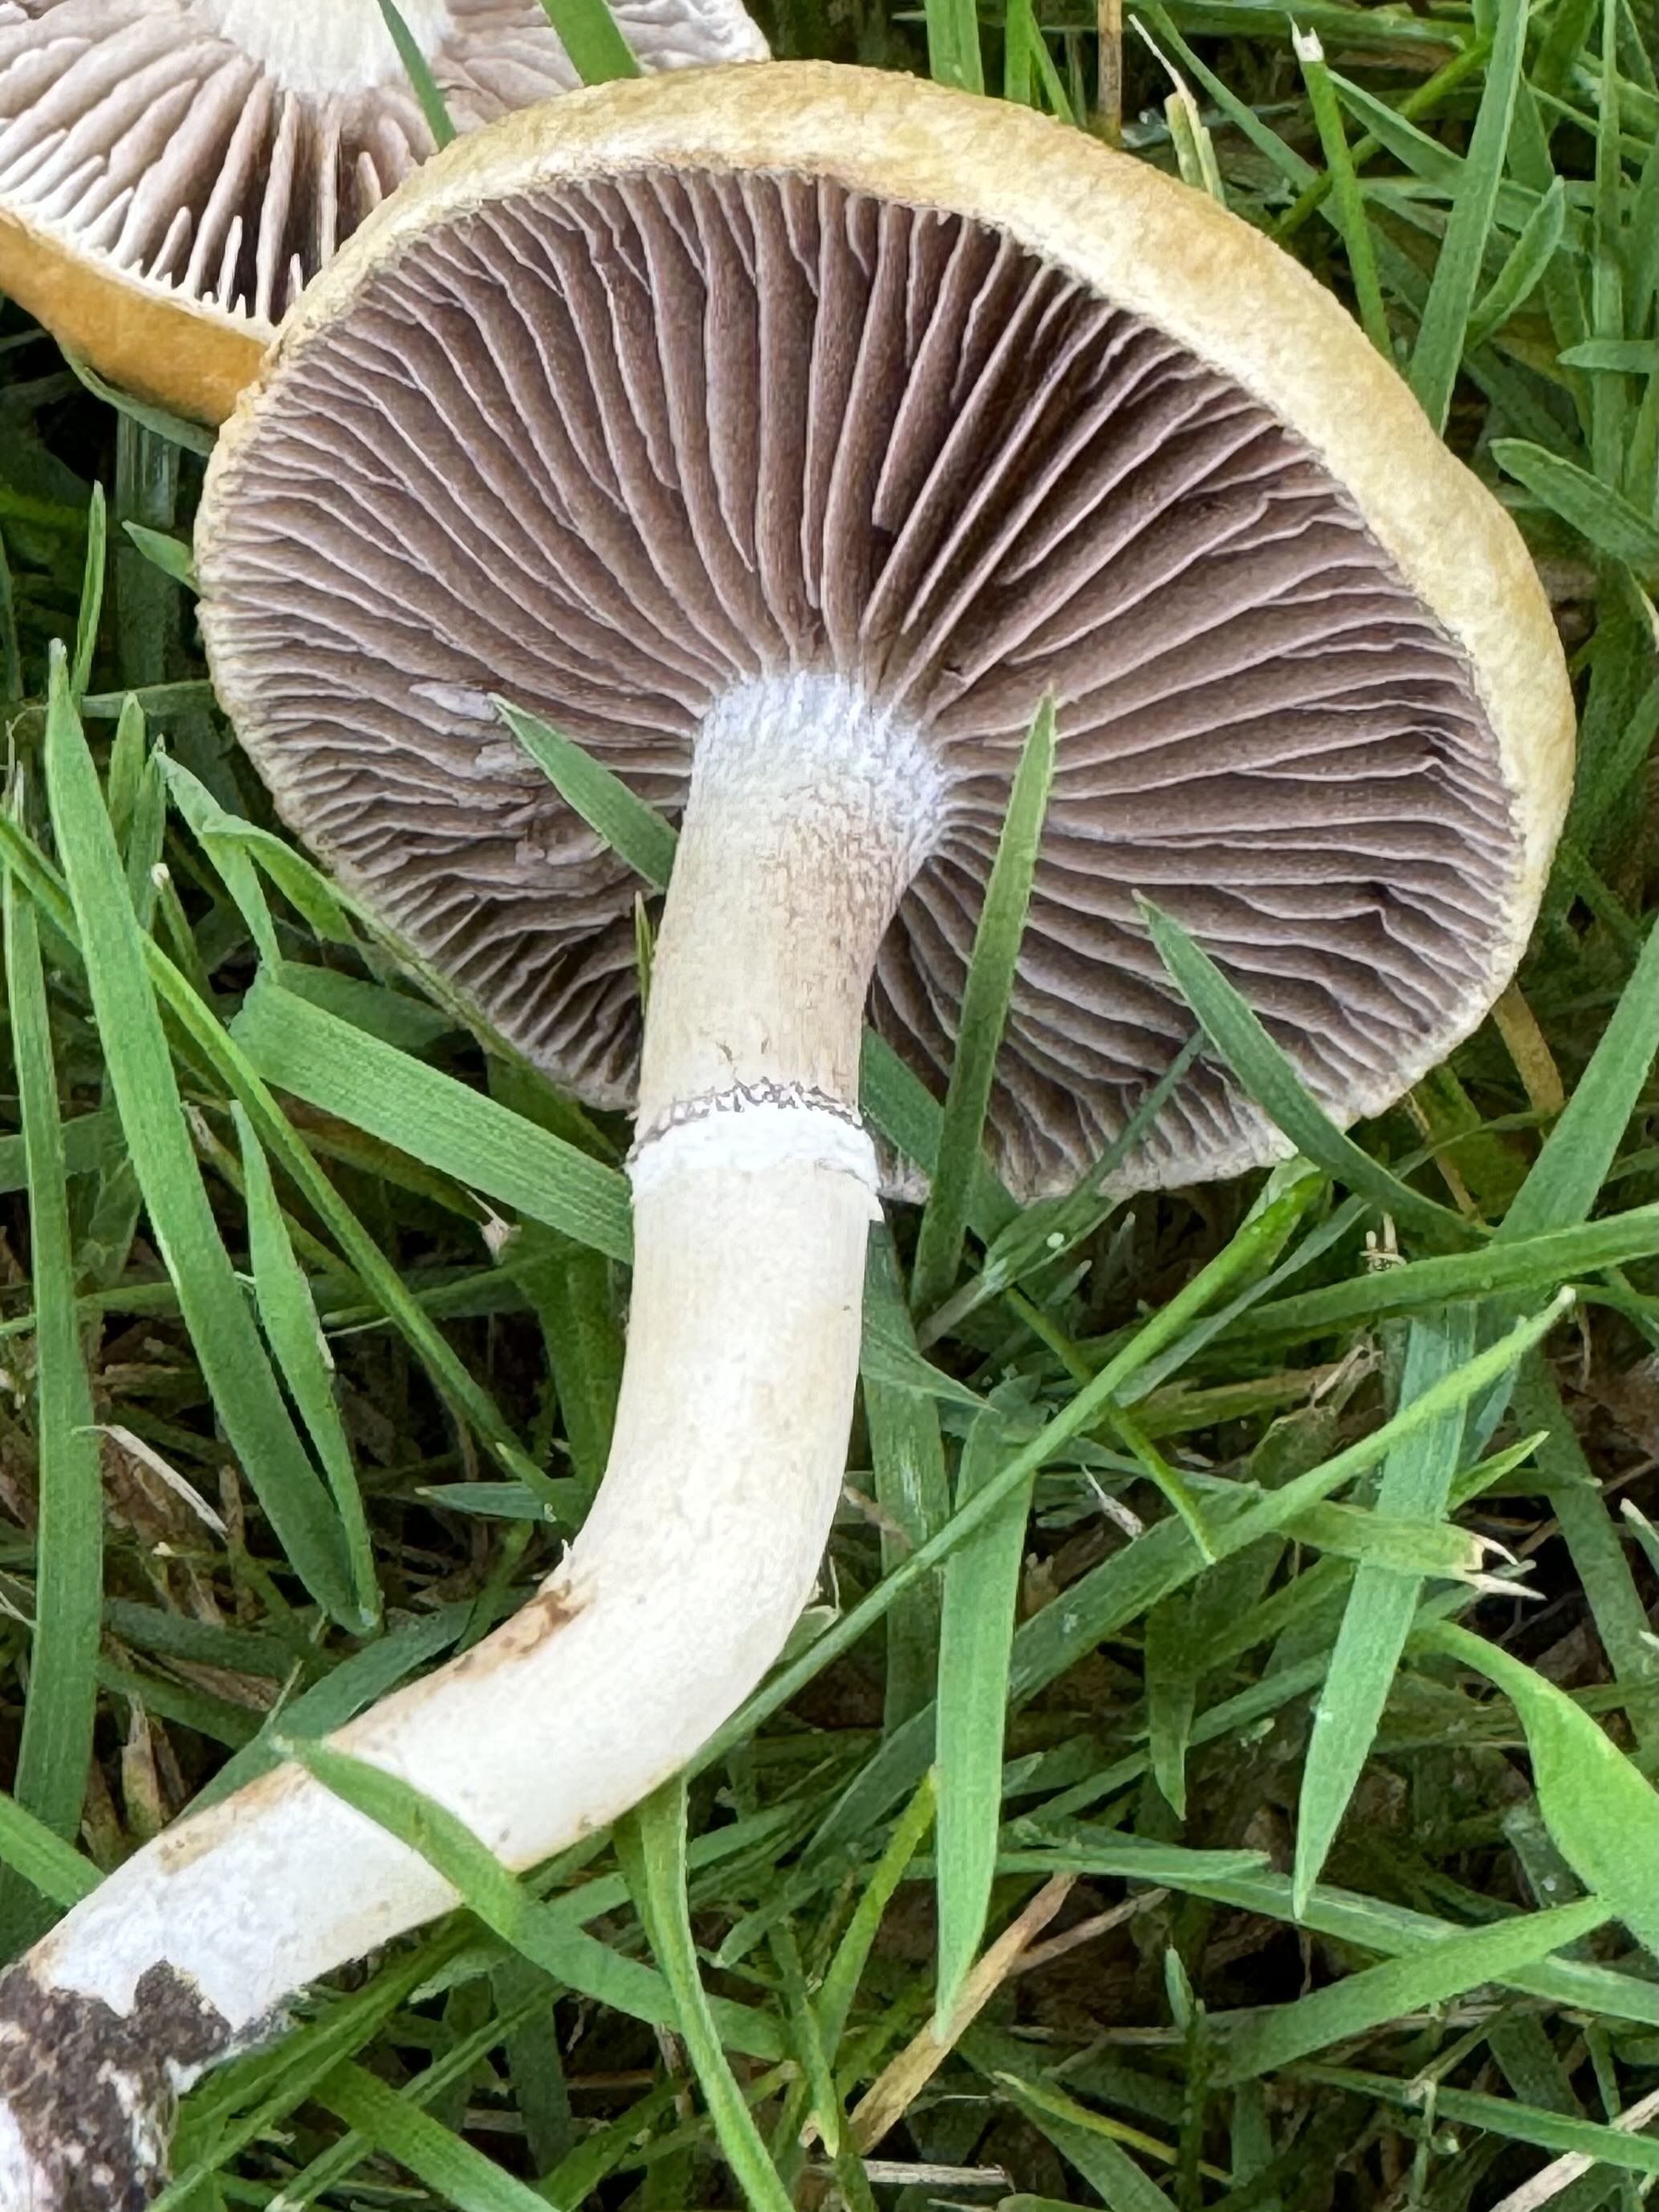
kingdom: Fungi
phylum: Basidiomycota
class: Agaricomycetes
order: Agaricales
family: Hymenogastraceae
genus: Psilocybe
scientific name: Psilocybe coronilla
